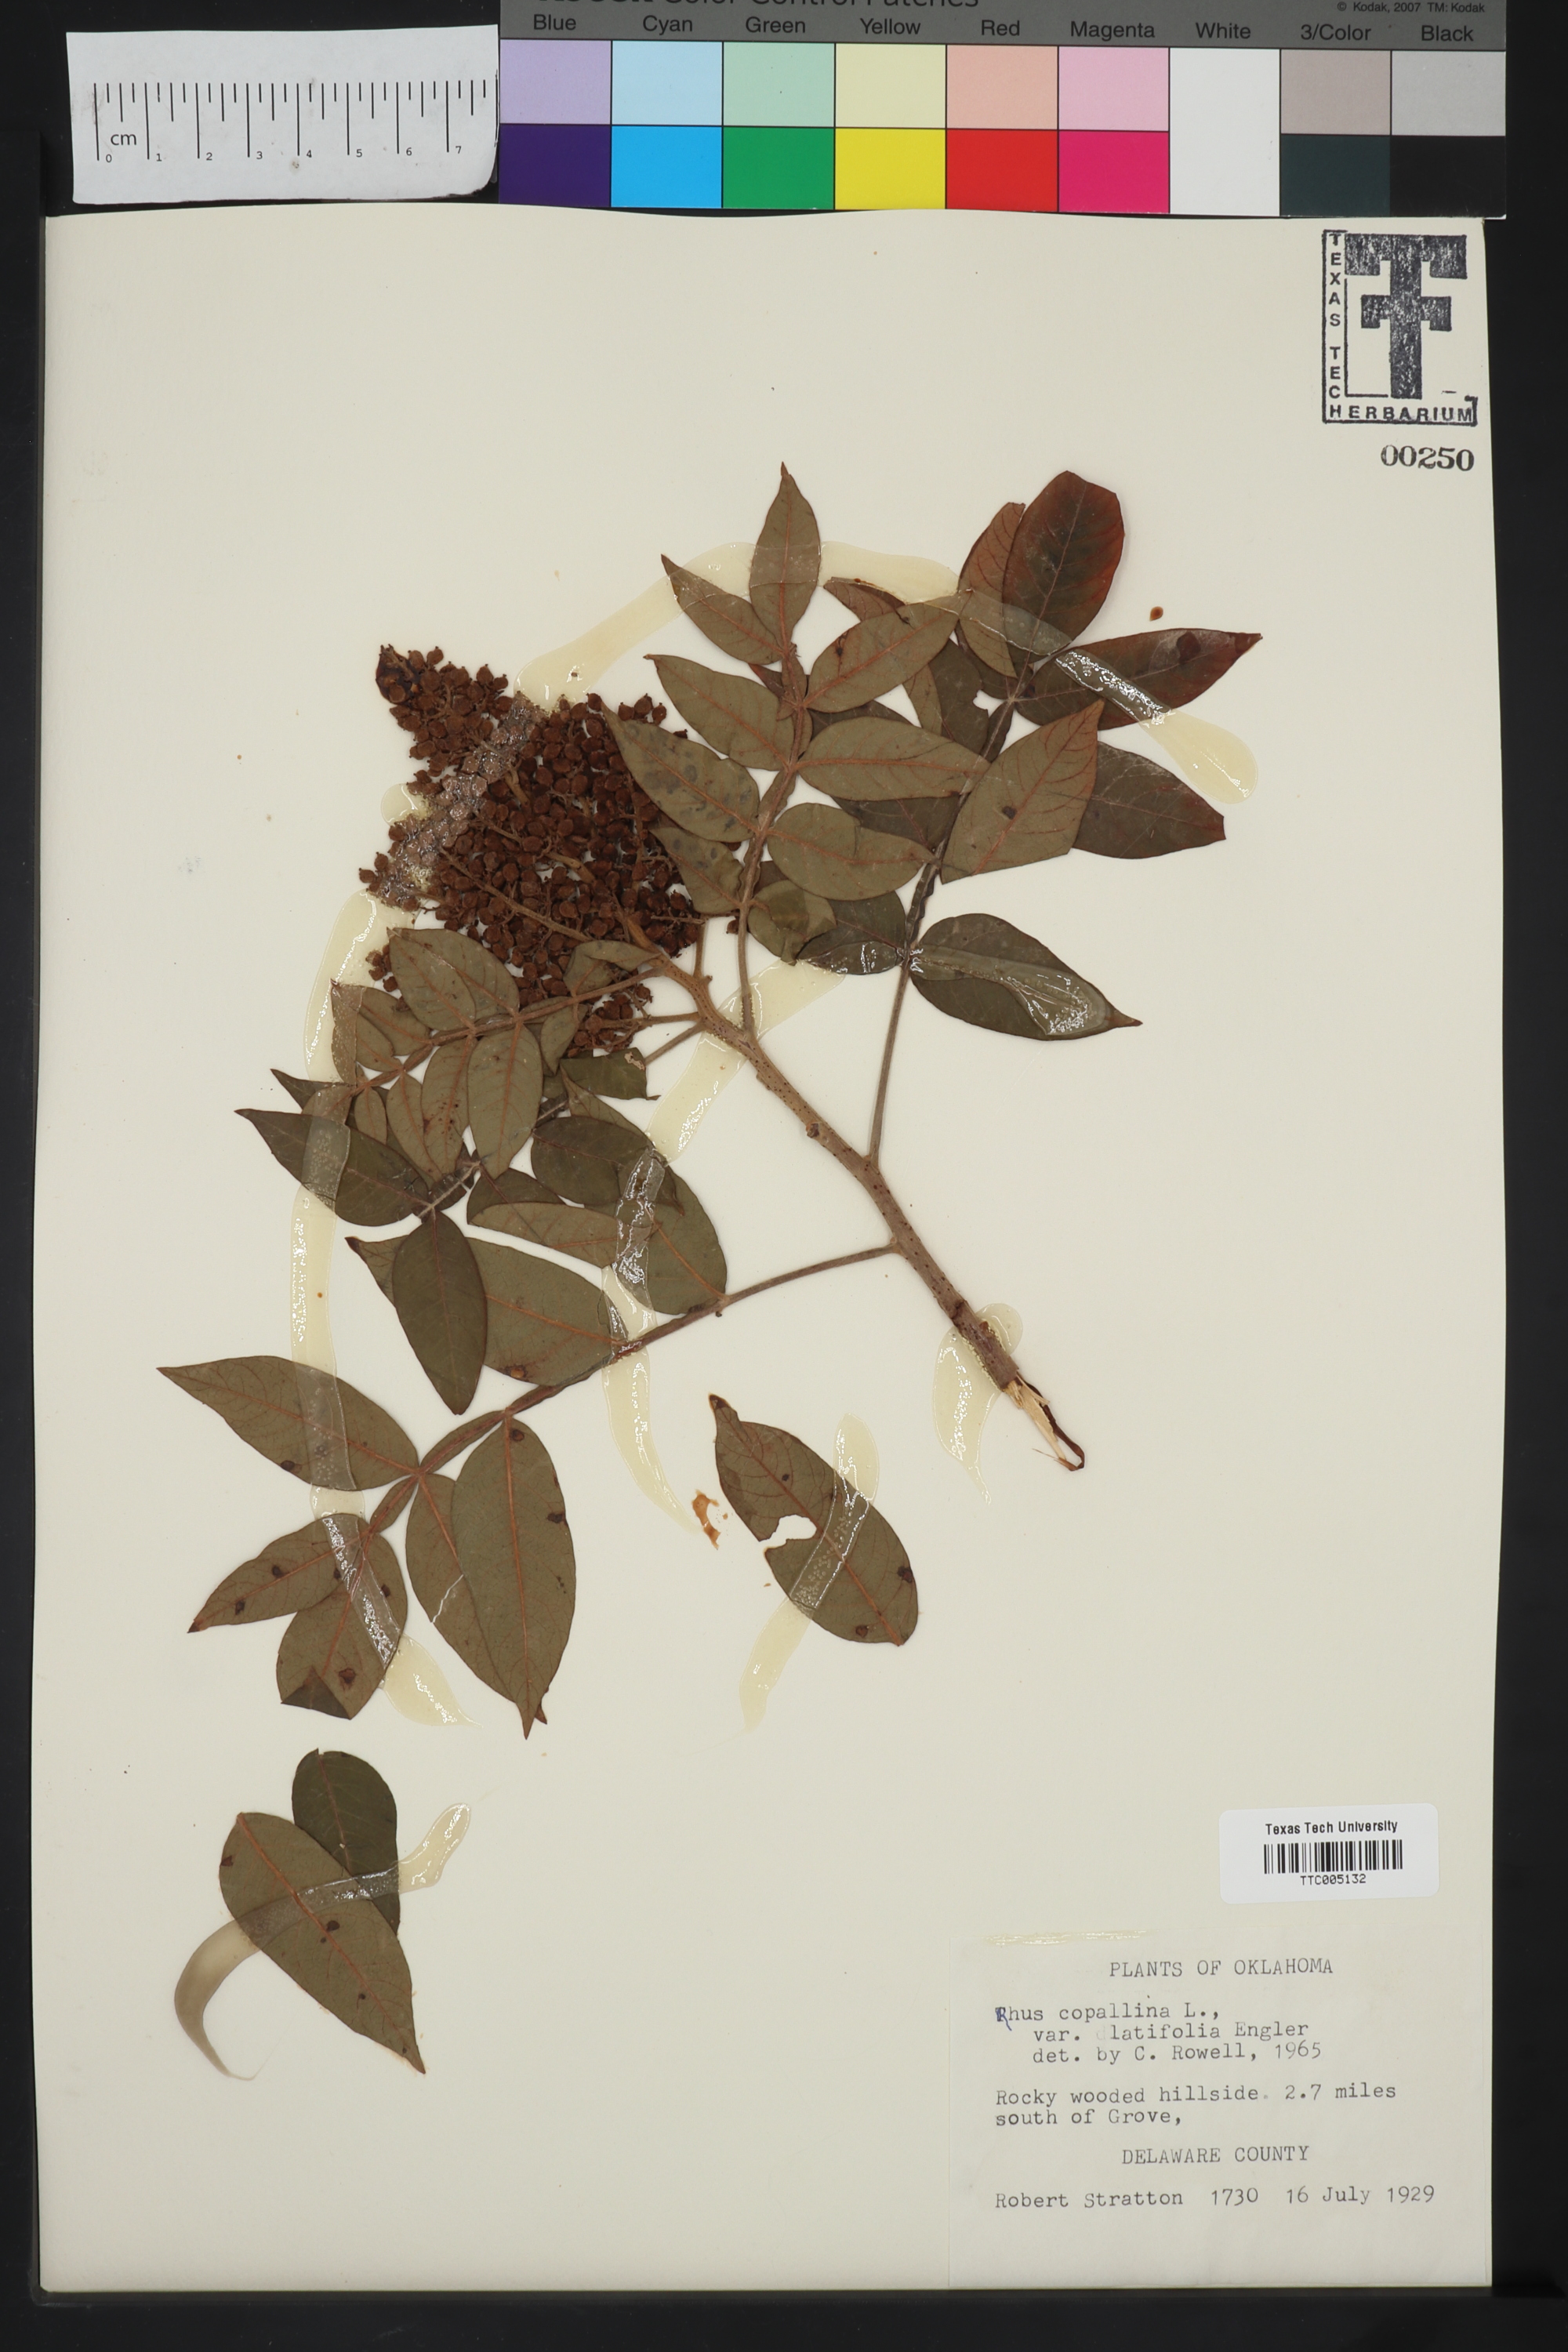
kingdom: Plantae
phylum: Tracheophyta
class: Magnoliopsida
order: Sapindales
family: Anacardiaceae
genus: Rhus
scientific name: Rhus copallina
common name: Shining sumac
